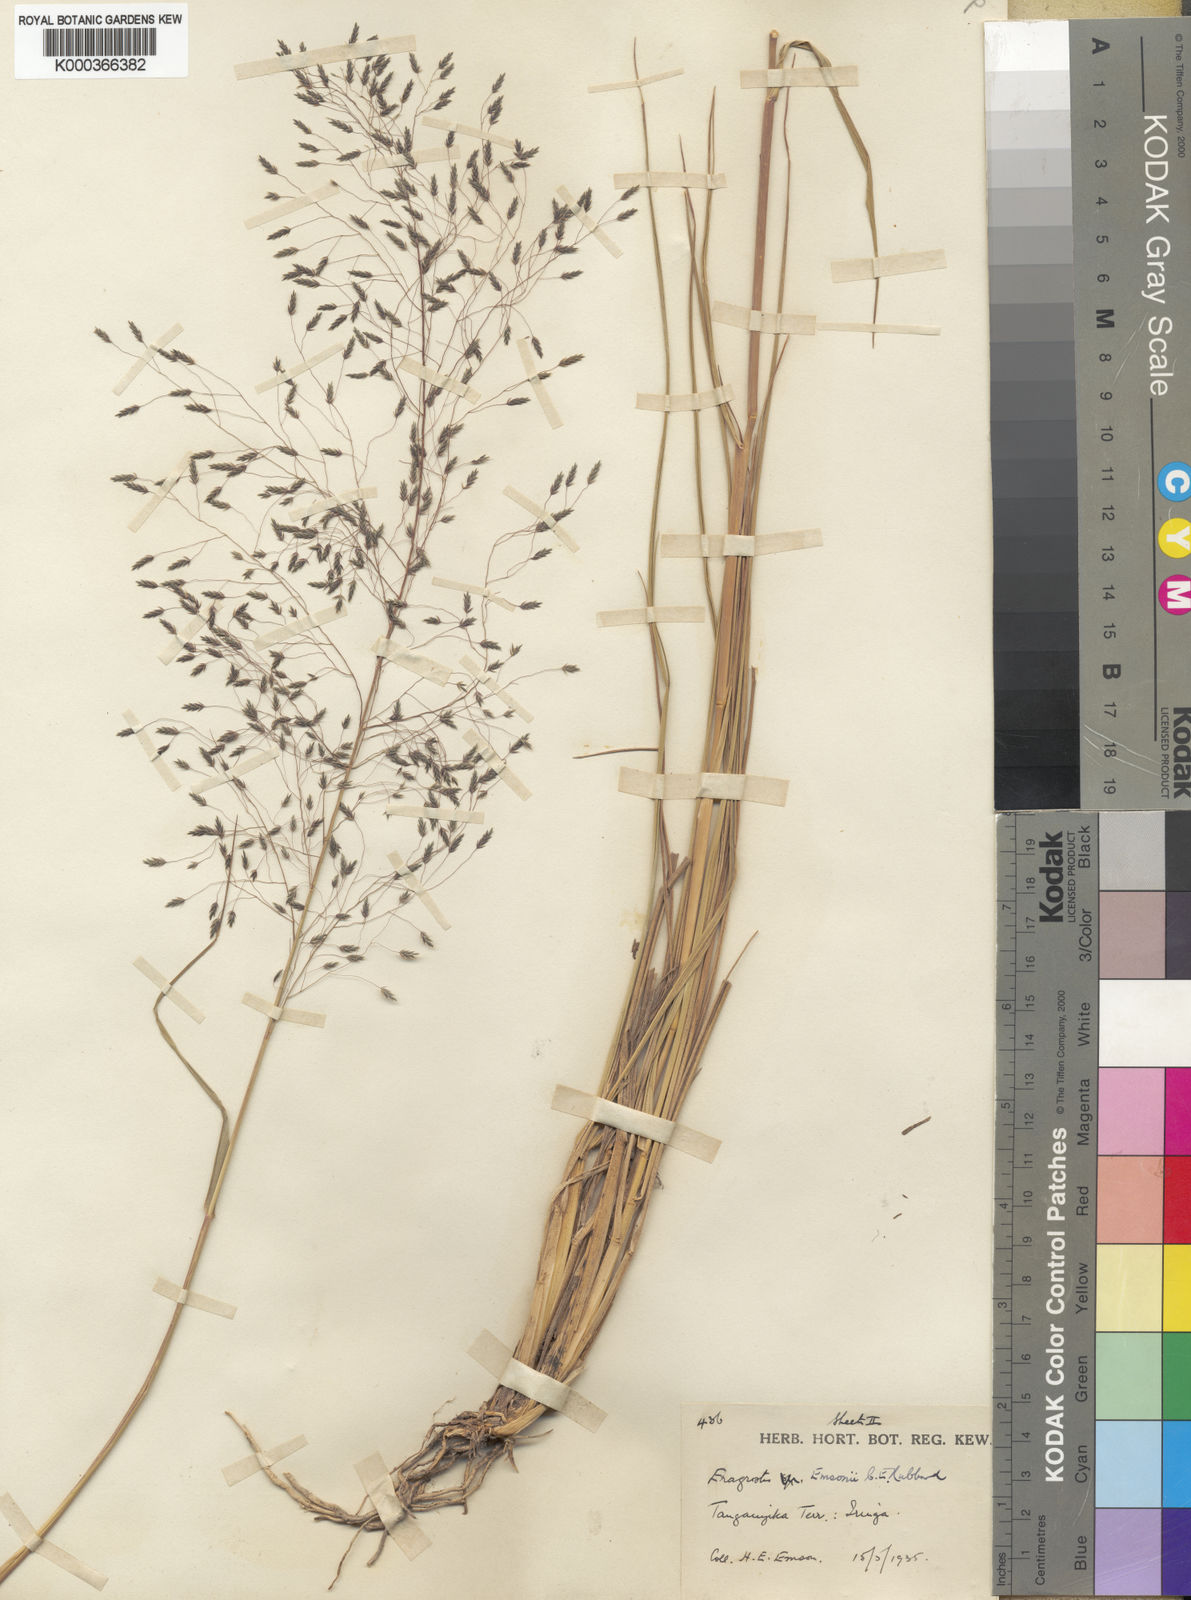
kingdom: Plantae
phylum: Tracheophyta
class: Liliopsida
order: Poales
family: Poaceae
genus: Eragrostis
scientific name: Eragrostis homblei
